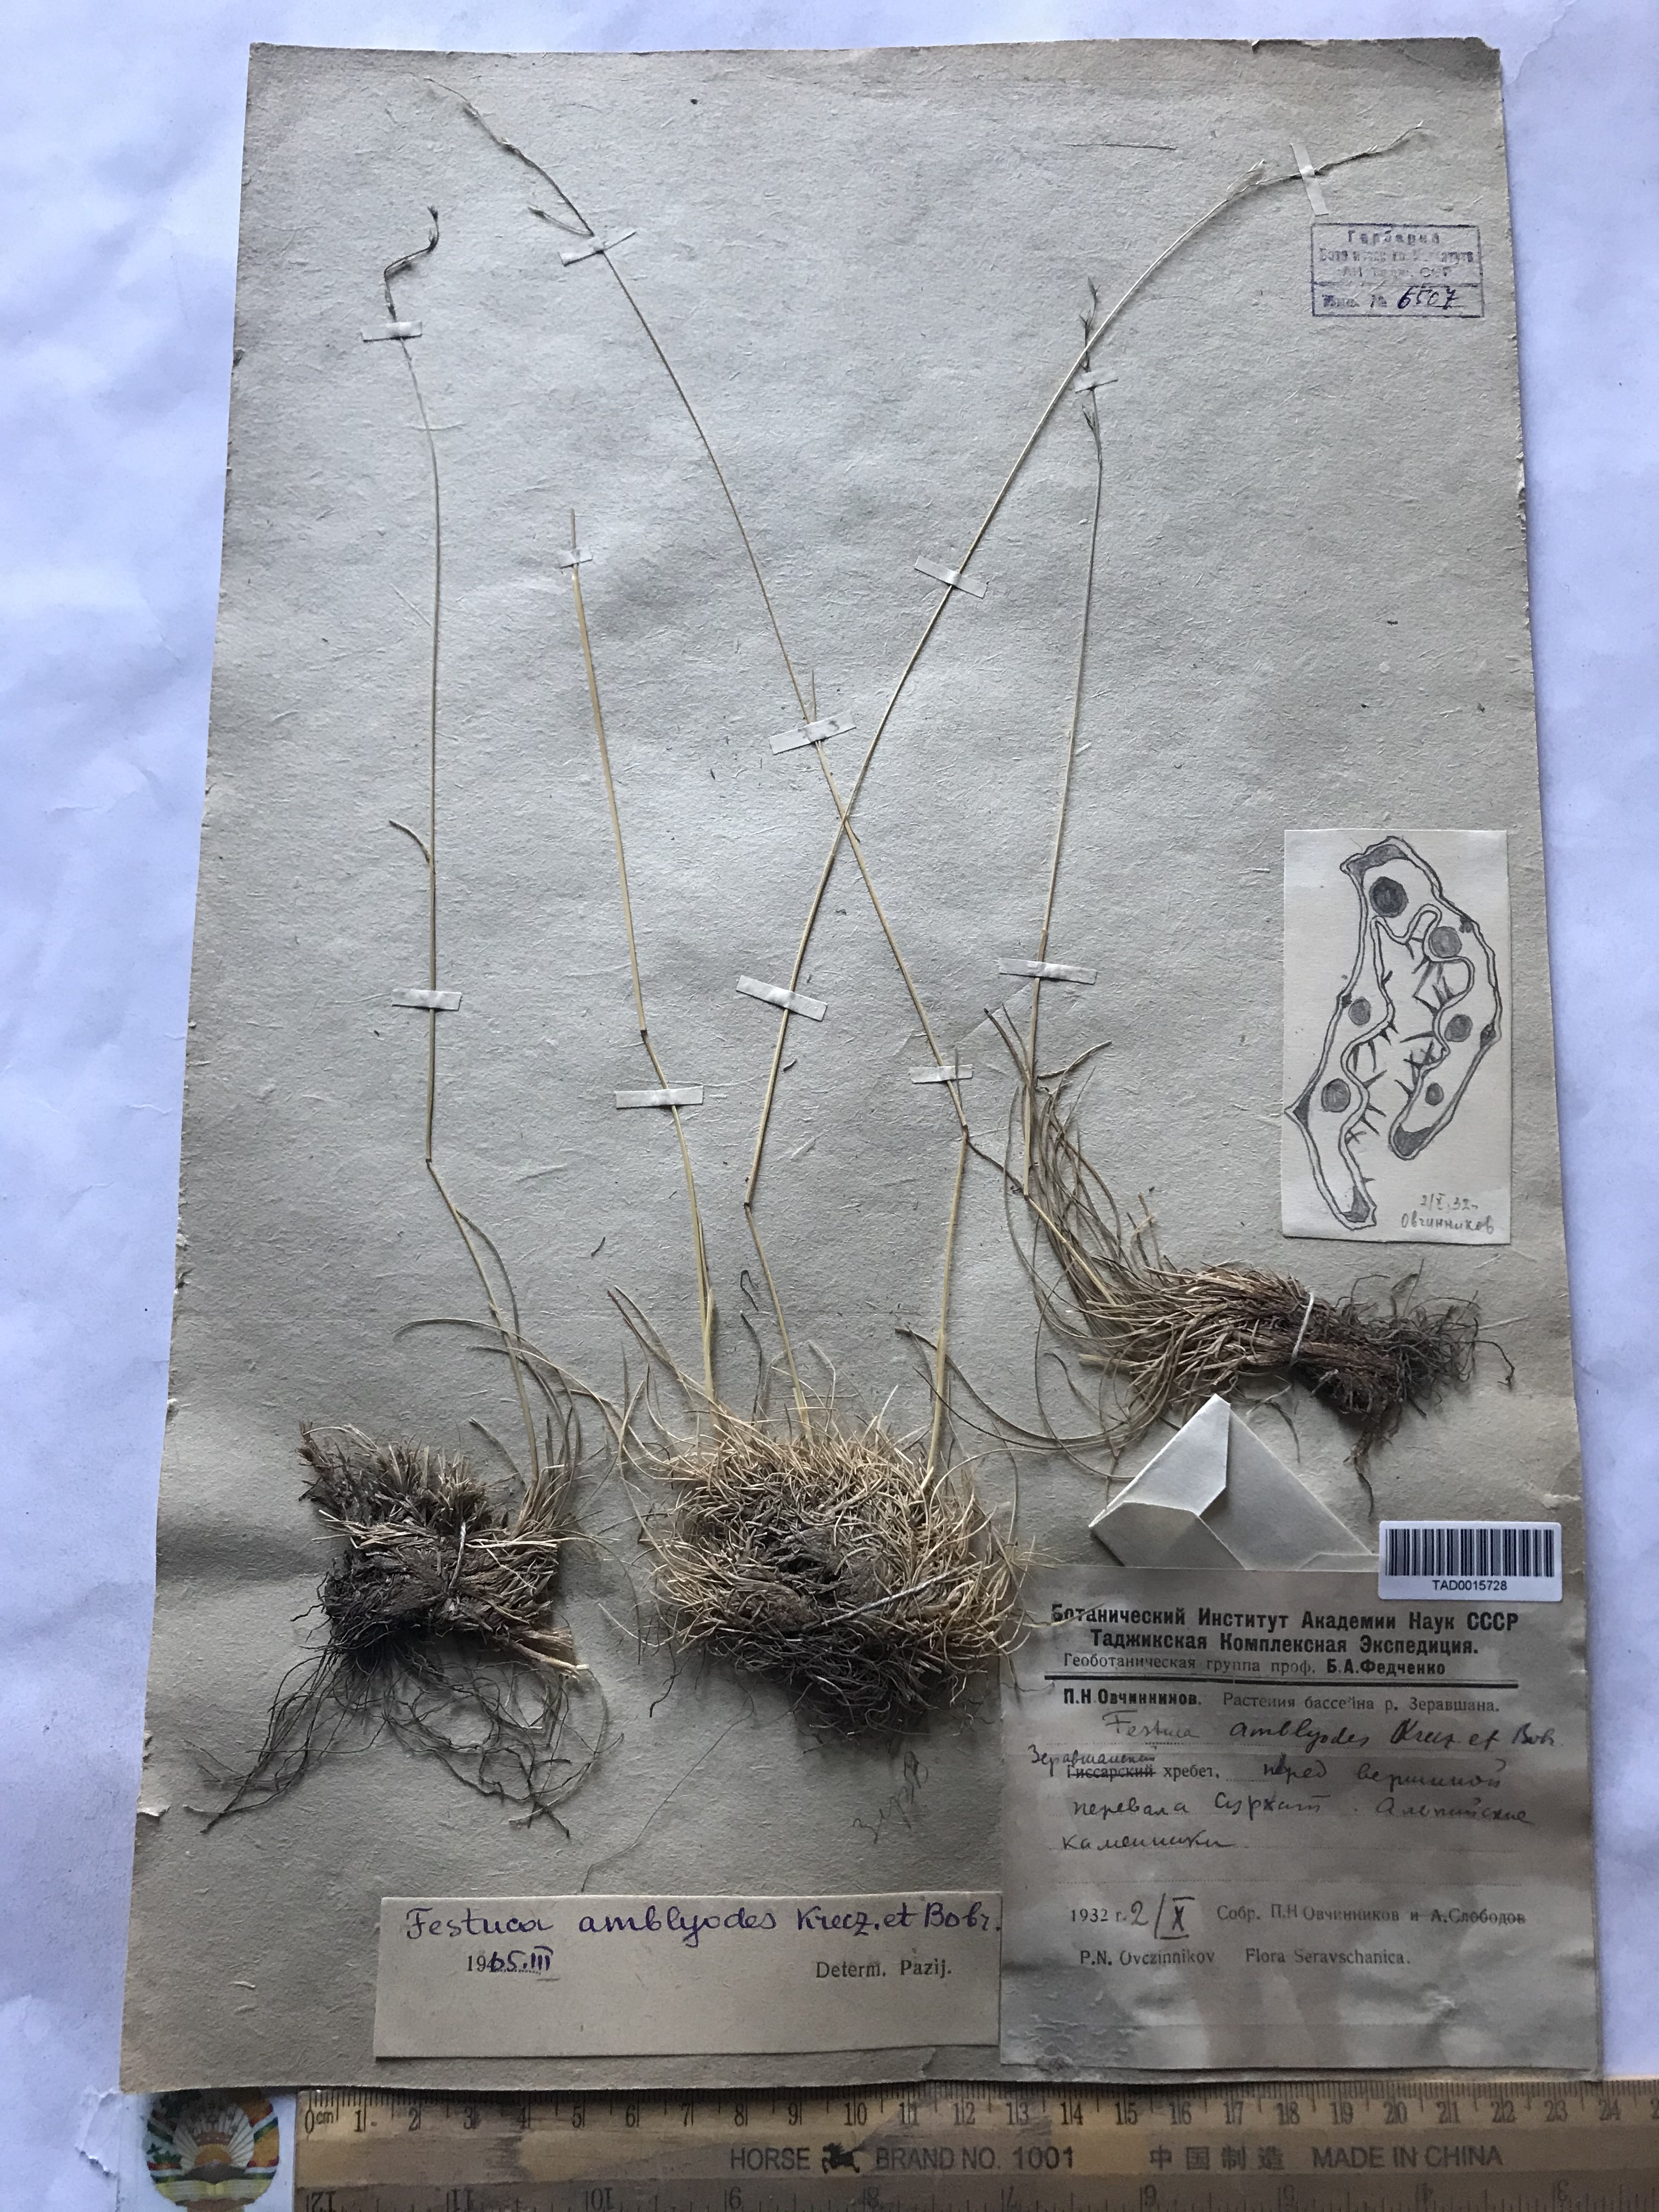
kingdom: Plantae
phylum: Tracheophyta
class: Liliopsida
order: Poales
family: Poaceae
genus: Festuca
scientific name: Festuca amblyodes
